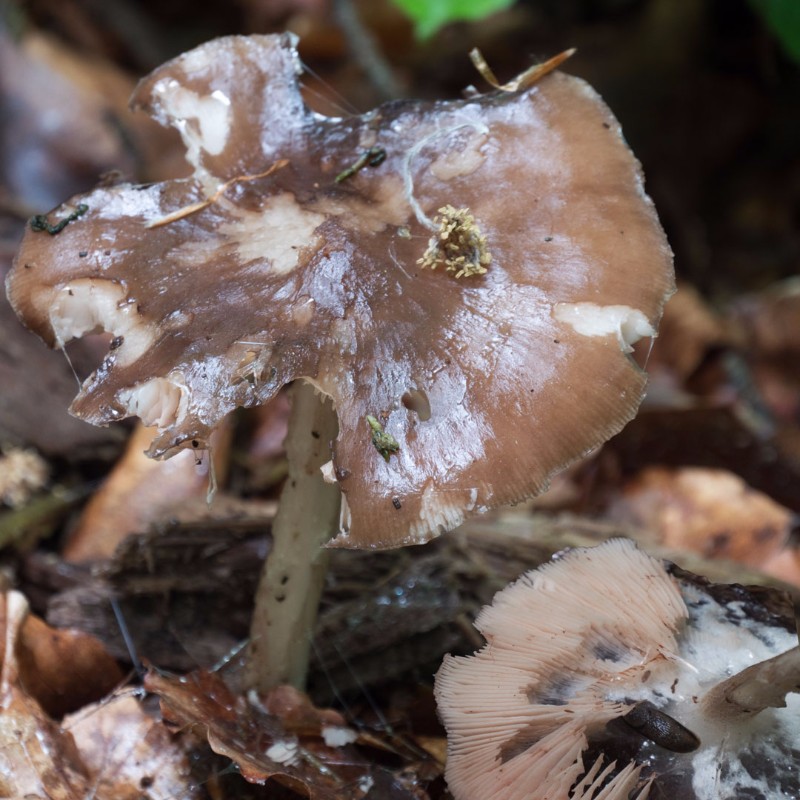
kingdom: Fungi
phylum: Basidiomycota
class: Agaricomycetes
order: Agaricales
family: Pluteaceae
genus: Pluteus
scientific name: Pluteus cervinus
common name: sodfarvet skærmhat
